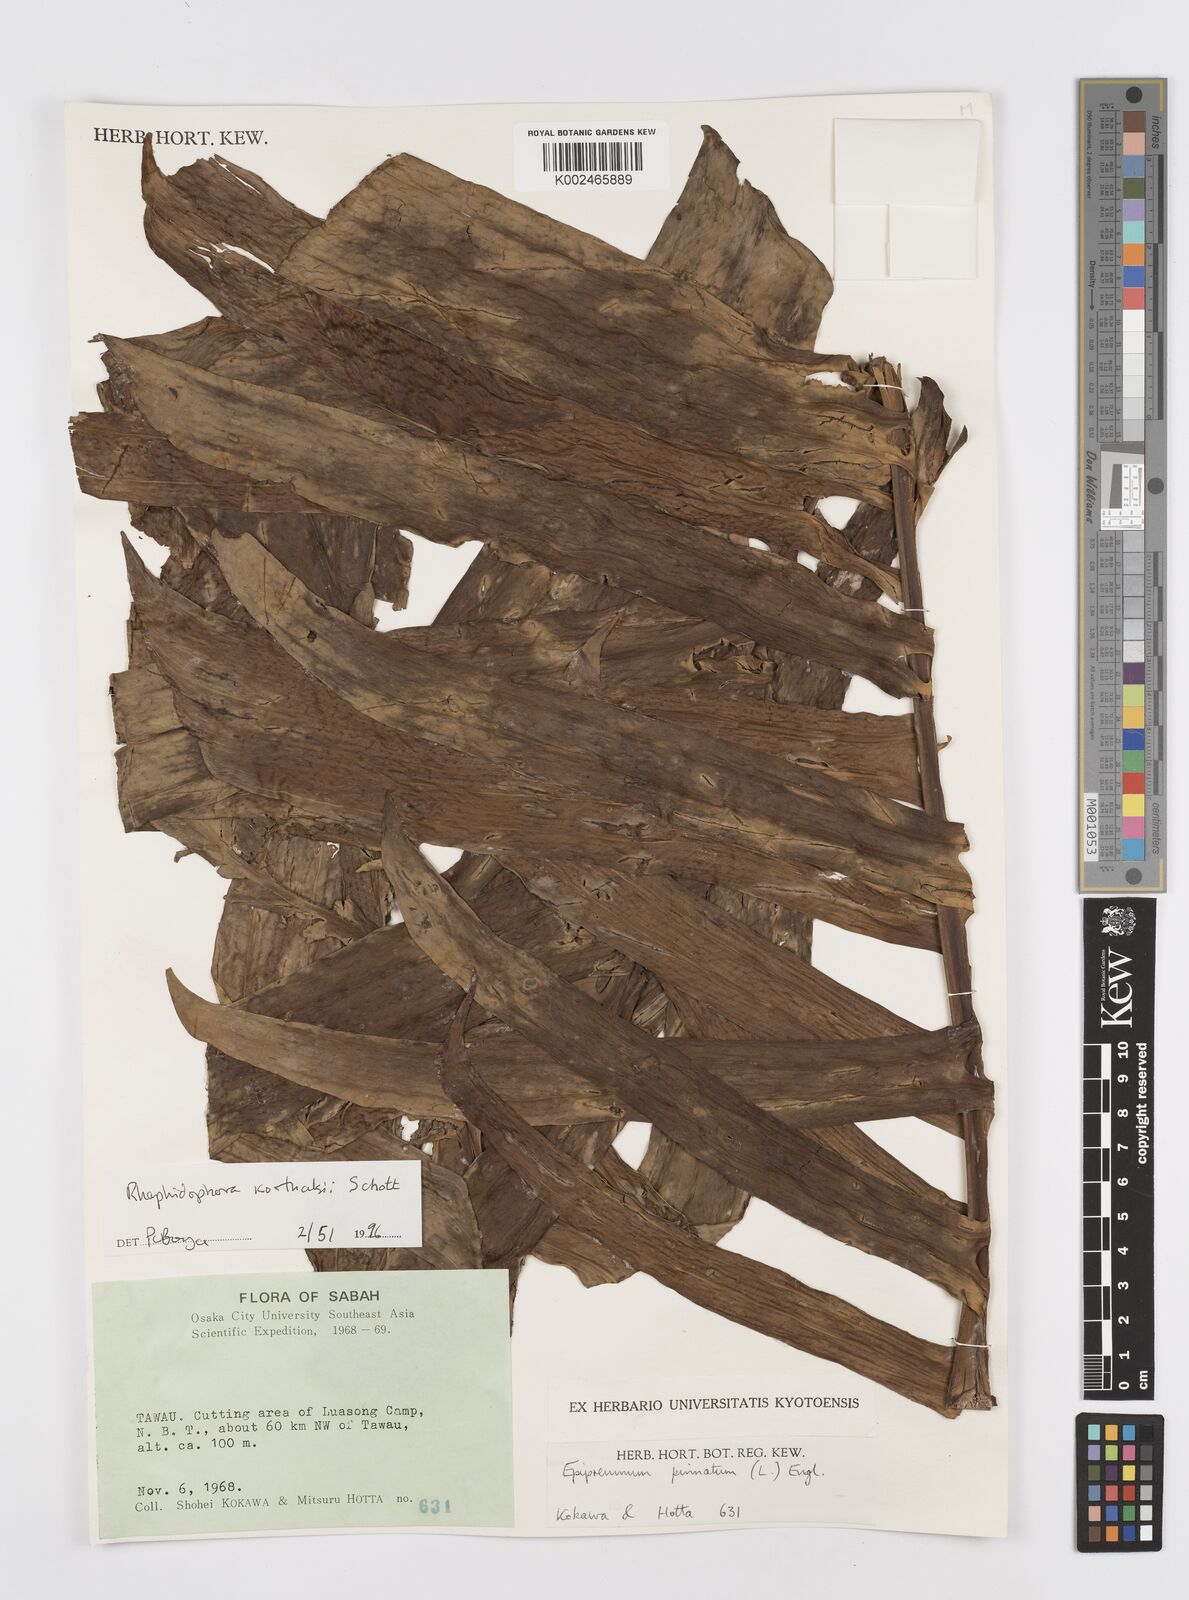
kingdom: Plantae
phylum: Tracheophyta
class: Liliopsida
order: Alismatales
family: Araceae
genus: Rhaphidophora
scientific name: Rhaphidophora korthalsii
